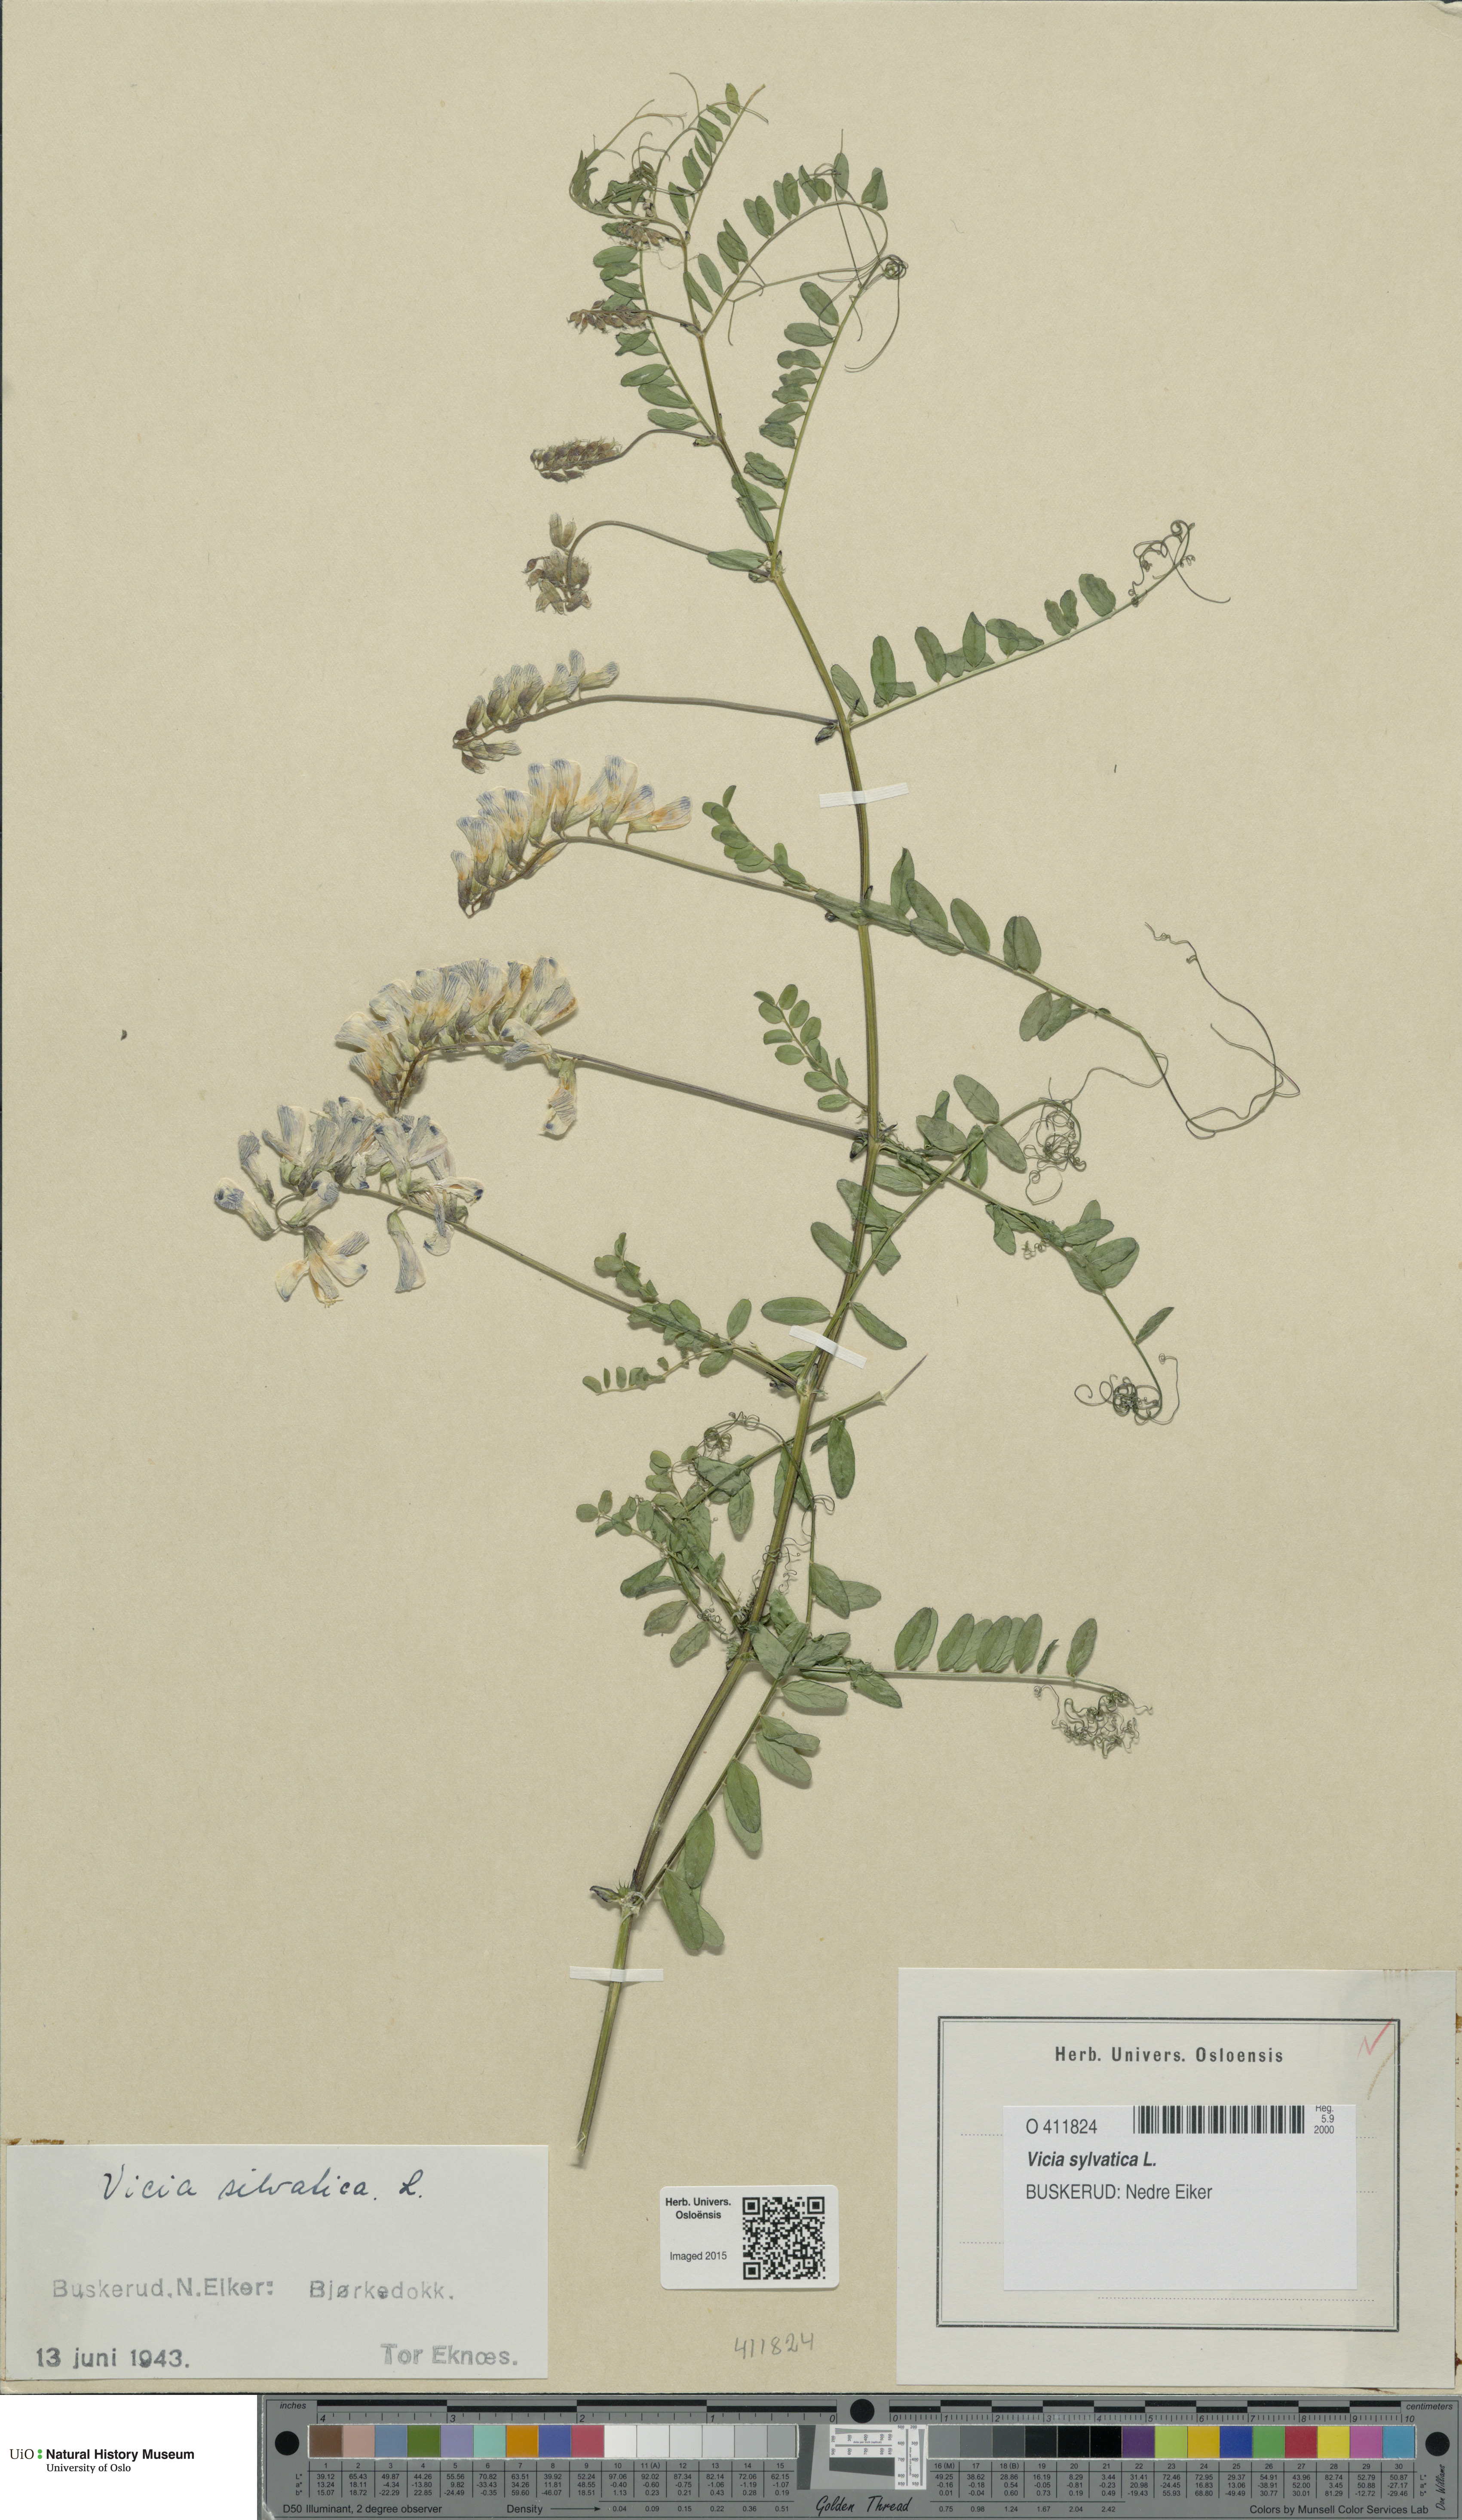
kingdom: Plantae
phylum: Tracheophyta
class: Magnoliopsida
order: Fabales
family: Fabaceae
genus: Vicia
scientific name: Vicia sylvatica
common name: Wood vetch
